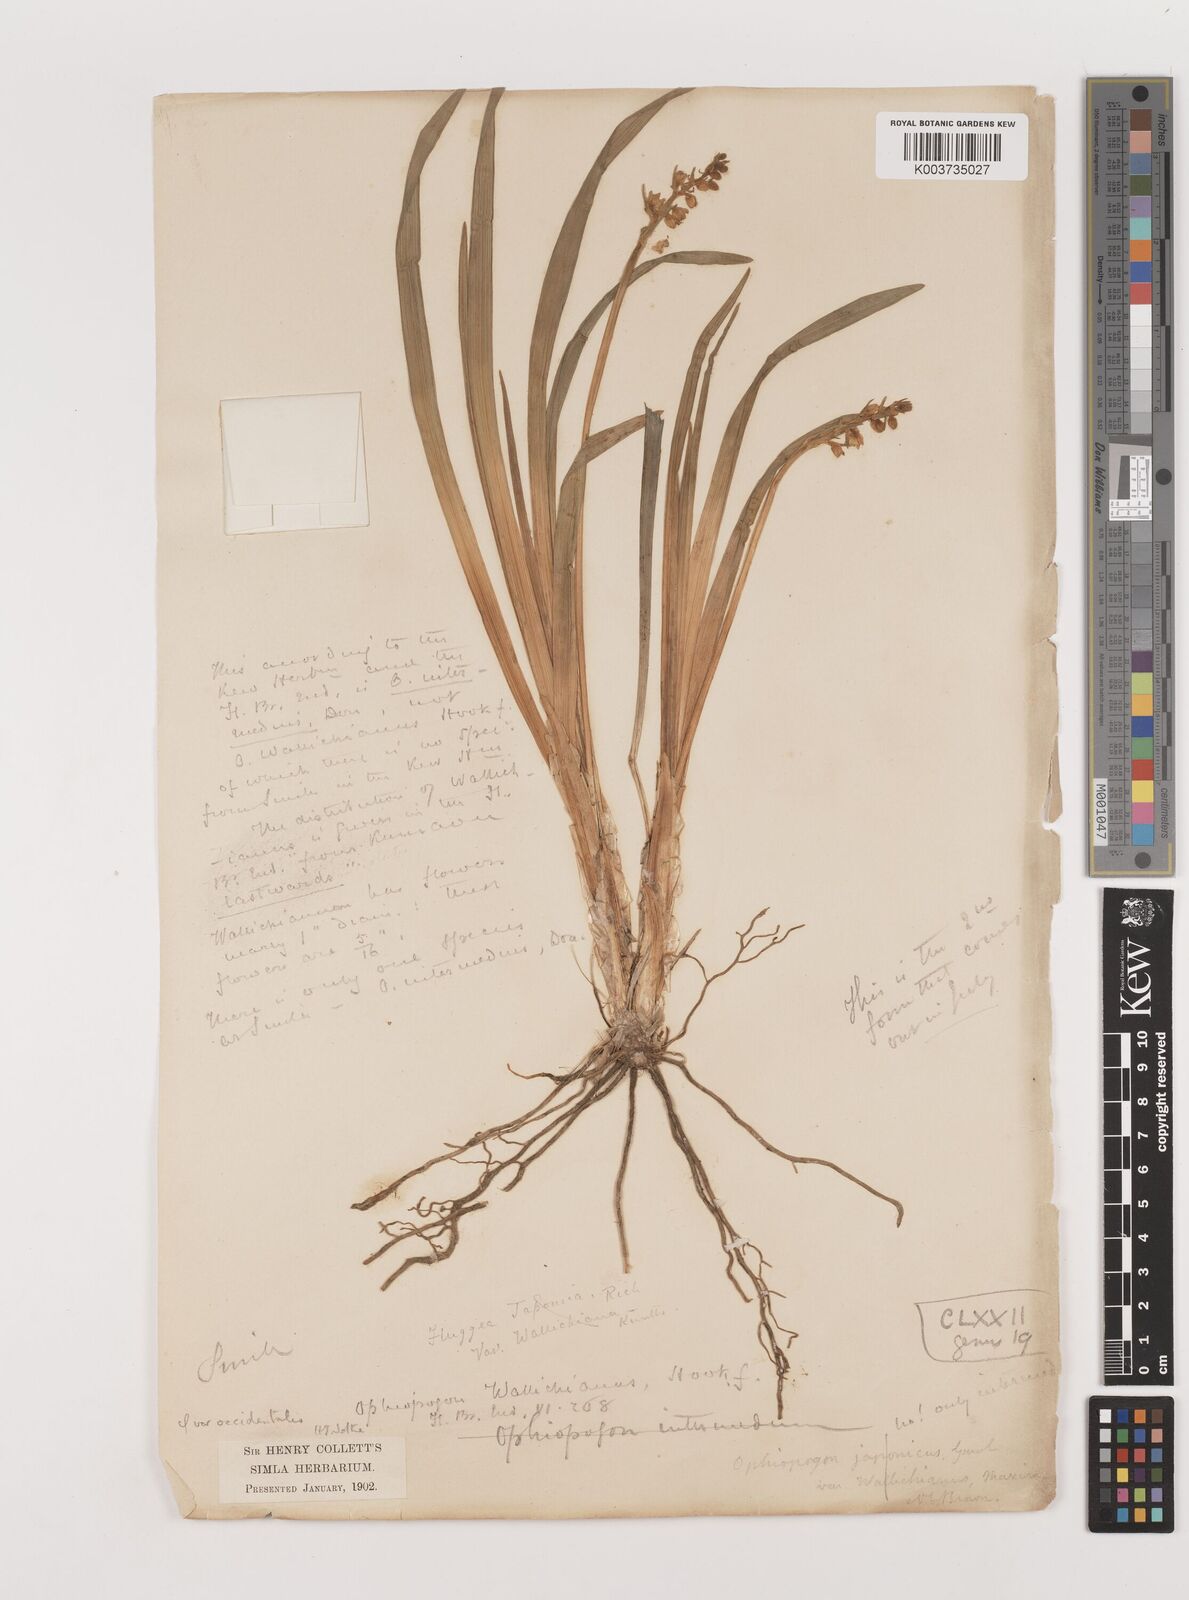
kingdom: Plantae
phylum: Tracheophyta
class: Liliopsida
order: Asparagales
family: Asparagaceae
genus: Ophiopogon
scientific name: Ophiopogon intermedius
